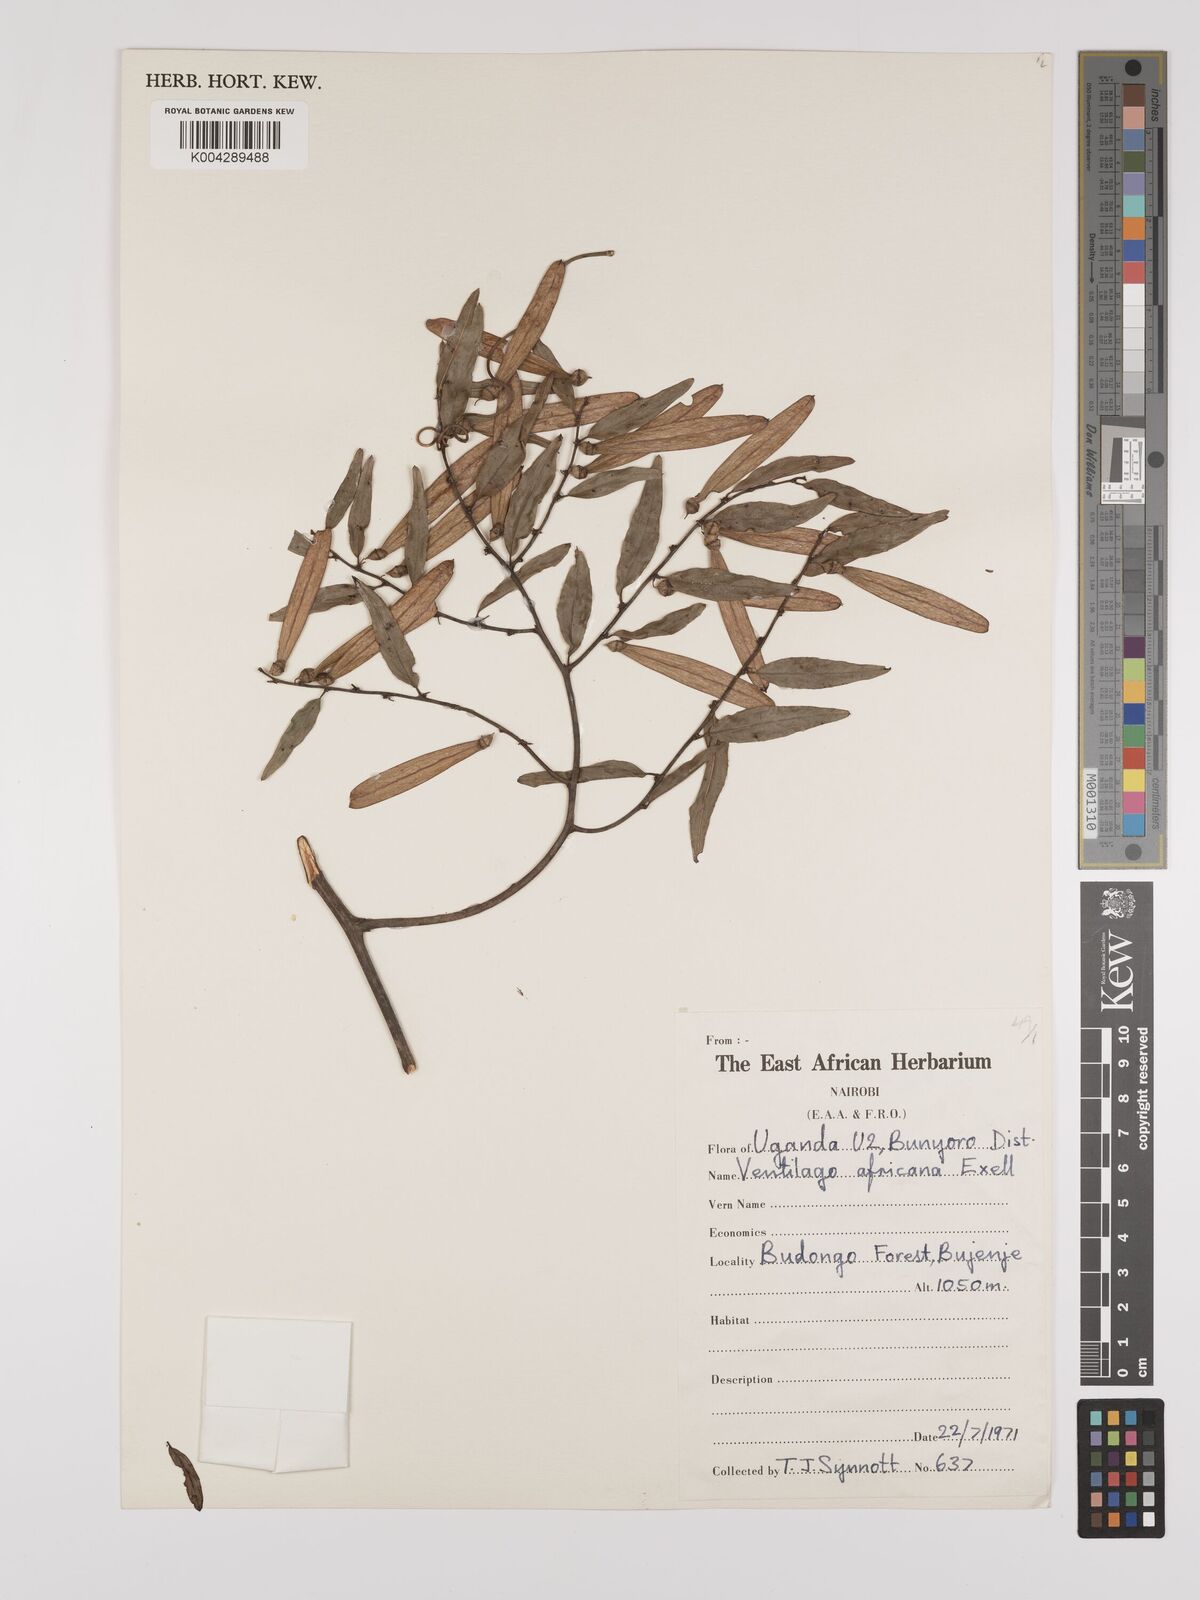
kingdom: Plantae
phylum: Tracheophyta
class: Magnoliopsida
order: Rosales
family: Rhamnaceae
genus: Ventilago
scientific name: Ventilago africana
